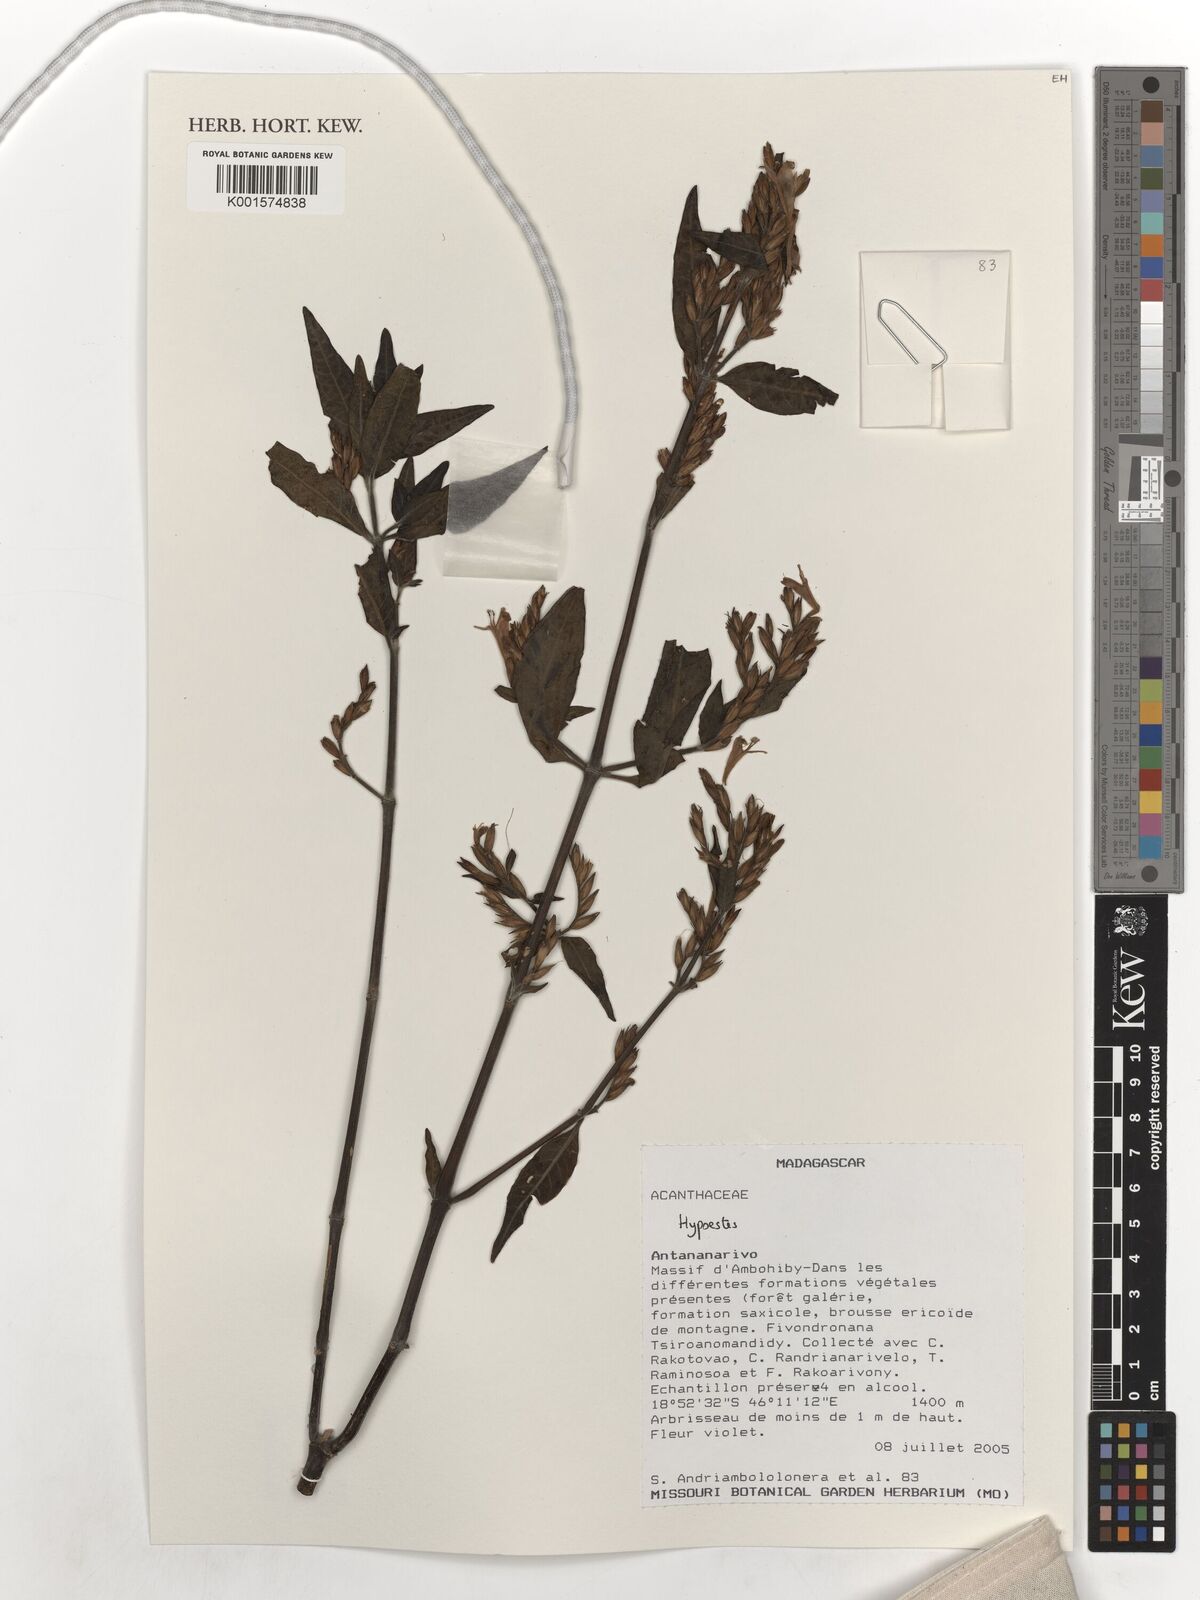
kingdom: Plantae
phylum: Tracheophyta
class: Magnoliopsida
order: Lamiales
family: Acanthaceae
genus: Hypoestes
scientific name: Hypoestes
